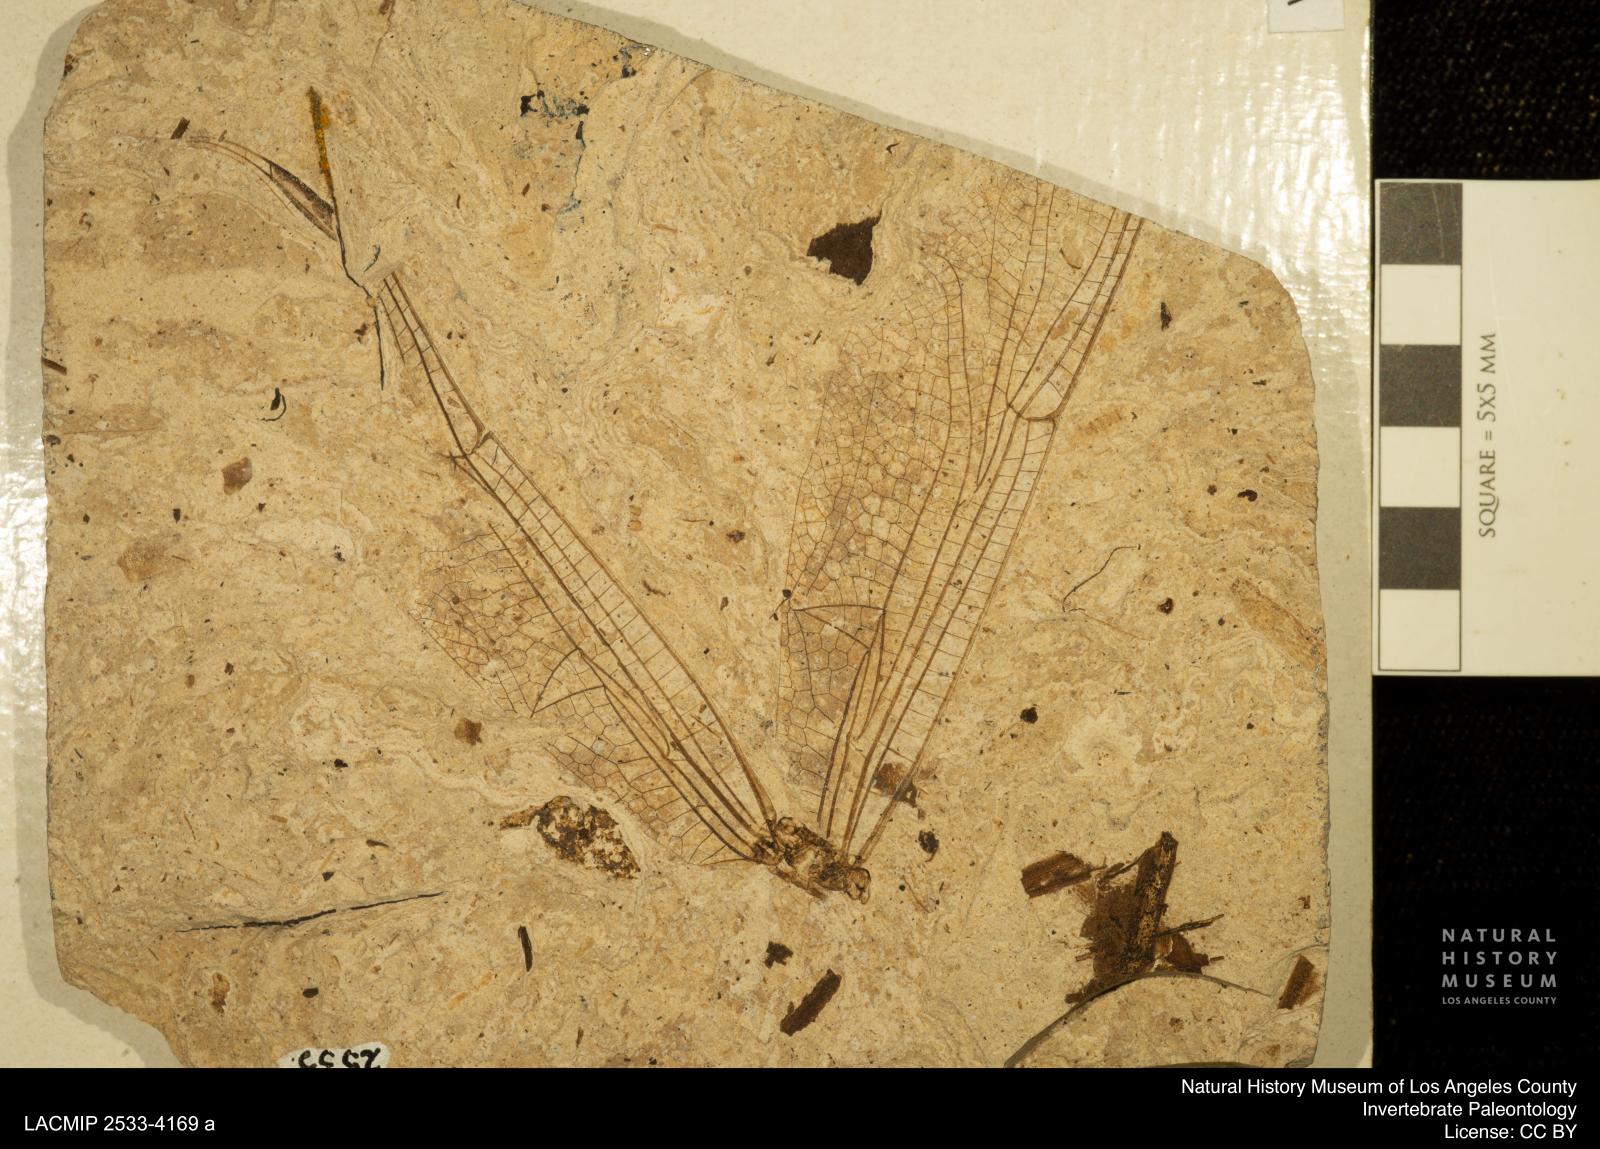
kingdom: Animalia
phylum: Arthropoda
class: Insecta
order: Odonata
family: Libellulidae
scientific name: Libellulidae
